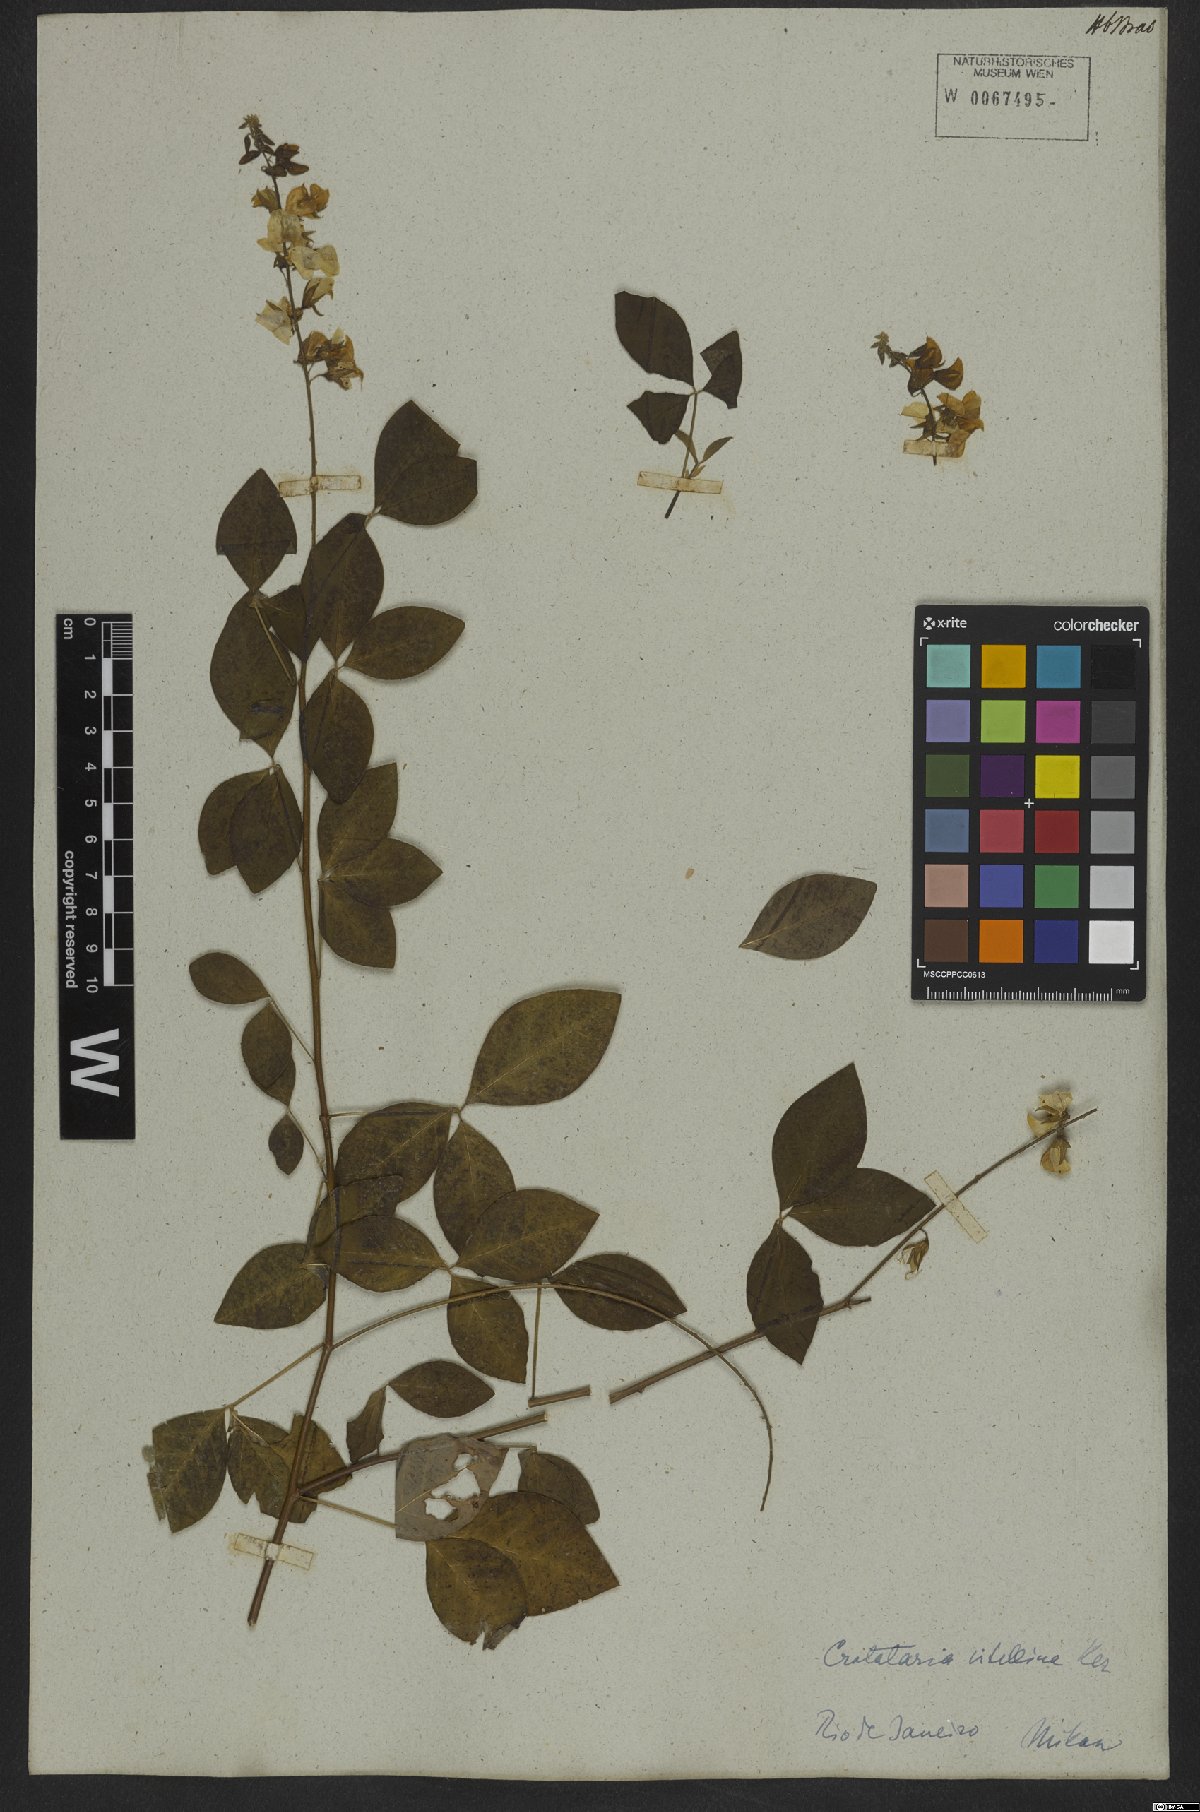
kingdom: Plantae
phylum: Tracheophyta
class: Magnoliopsida
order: Fabales
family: Fabaceae
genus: Crotalaria
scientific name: Crotalaria vitellina
